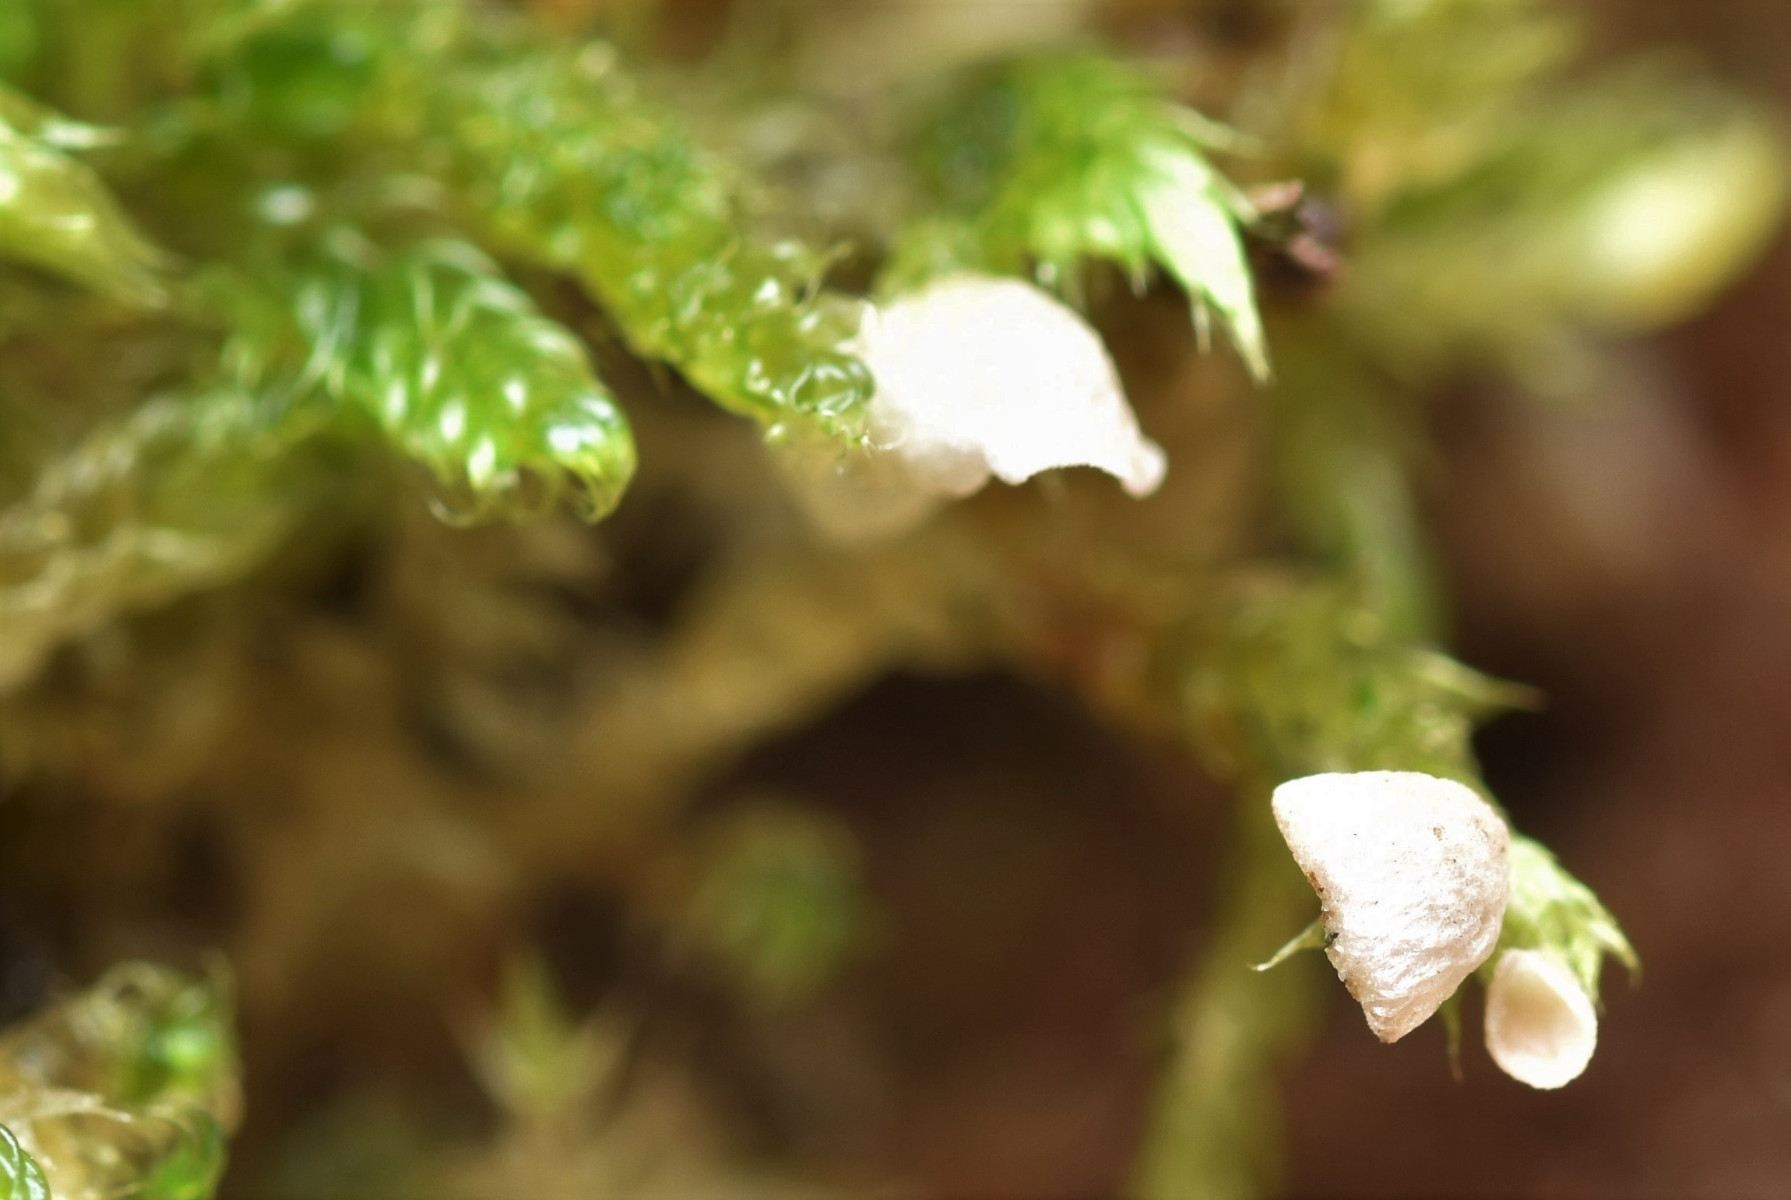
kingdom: Fungi
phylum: Basidiomycota
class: Agaricomycetes
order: Agaricales
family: Hygrophoraceae
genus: Arrhenia
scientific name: Arrhenia retiruga
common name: lille fontænehat
